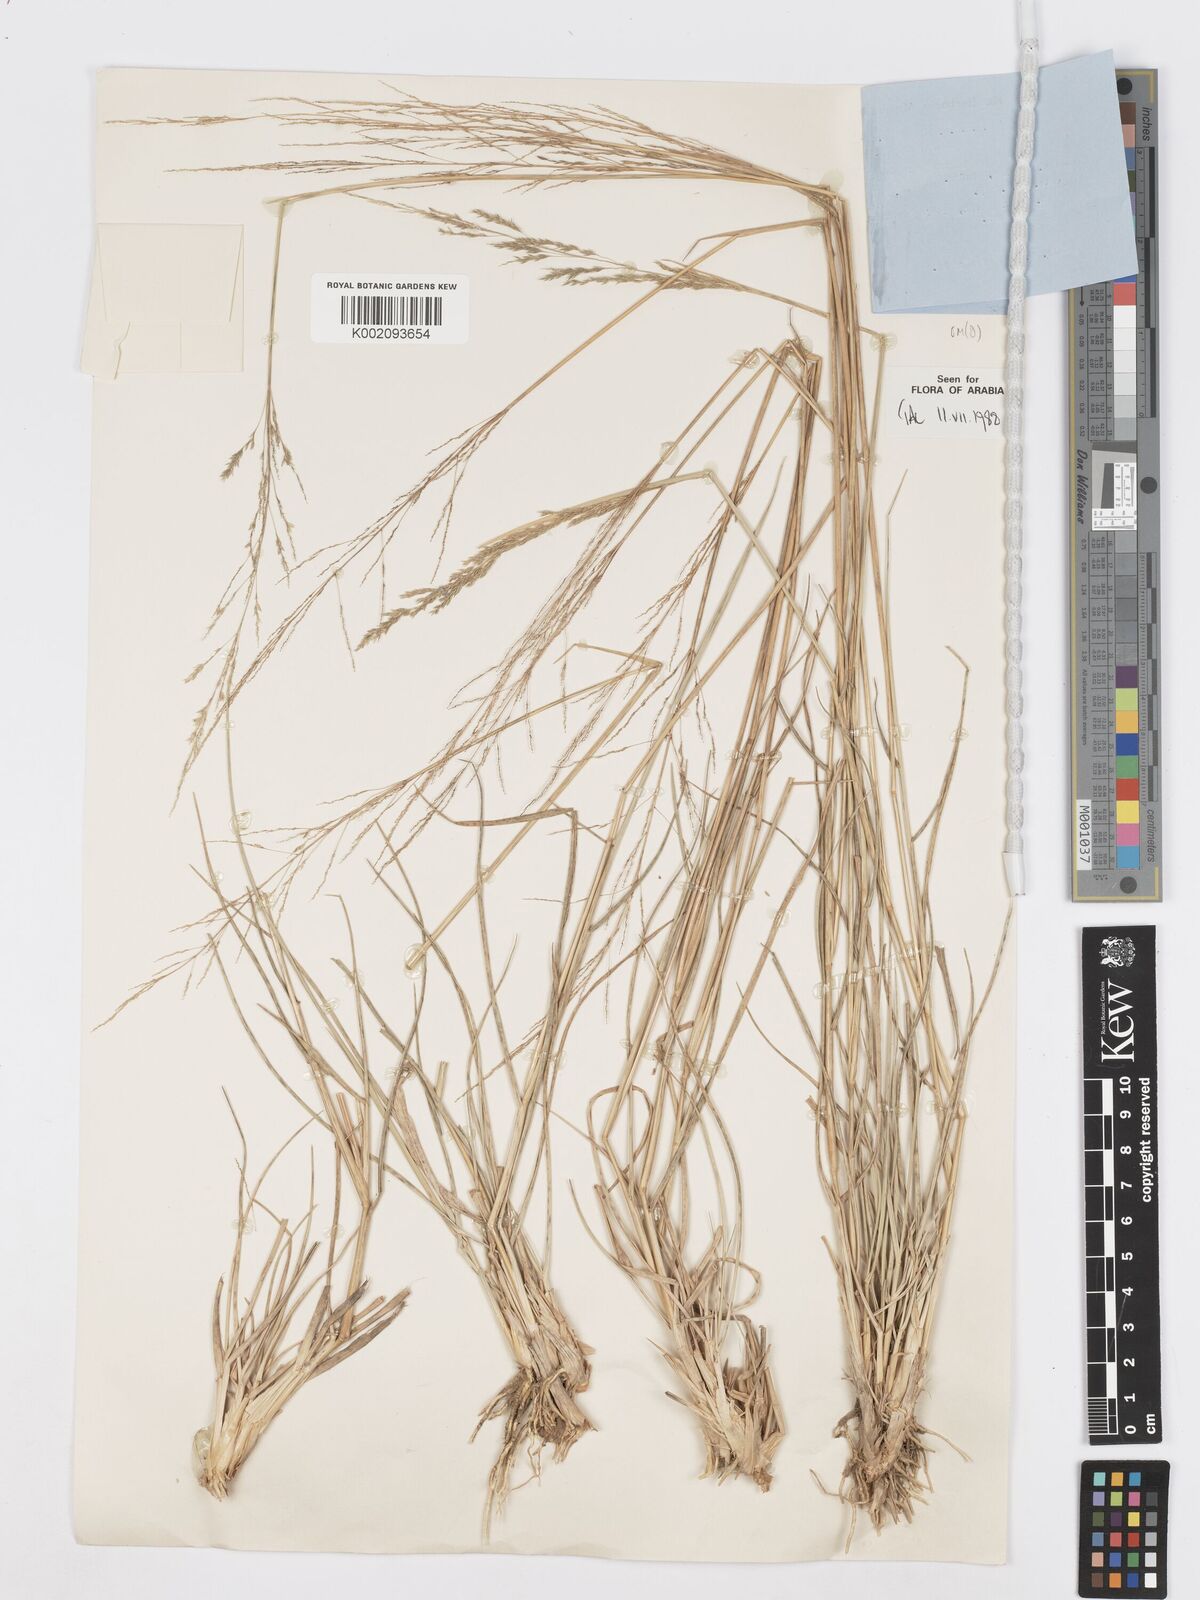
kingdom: Plantae
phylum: Tracheophyta
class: Liliopsida
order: Poales
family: Poaceae
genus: Sporobolus
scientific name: Sporobolus ioclados
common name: Pan dropseed
